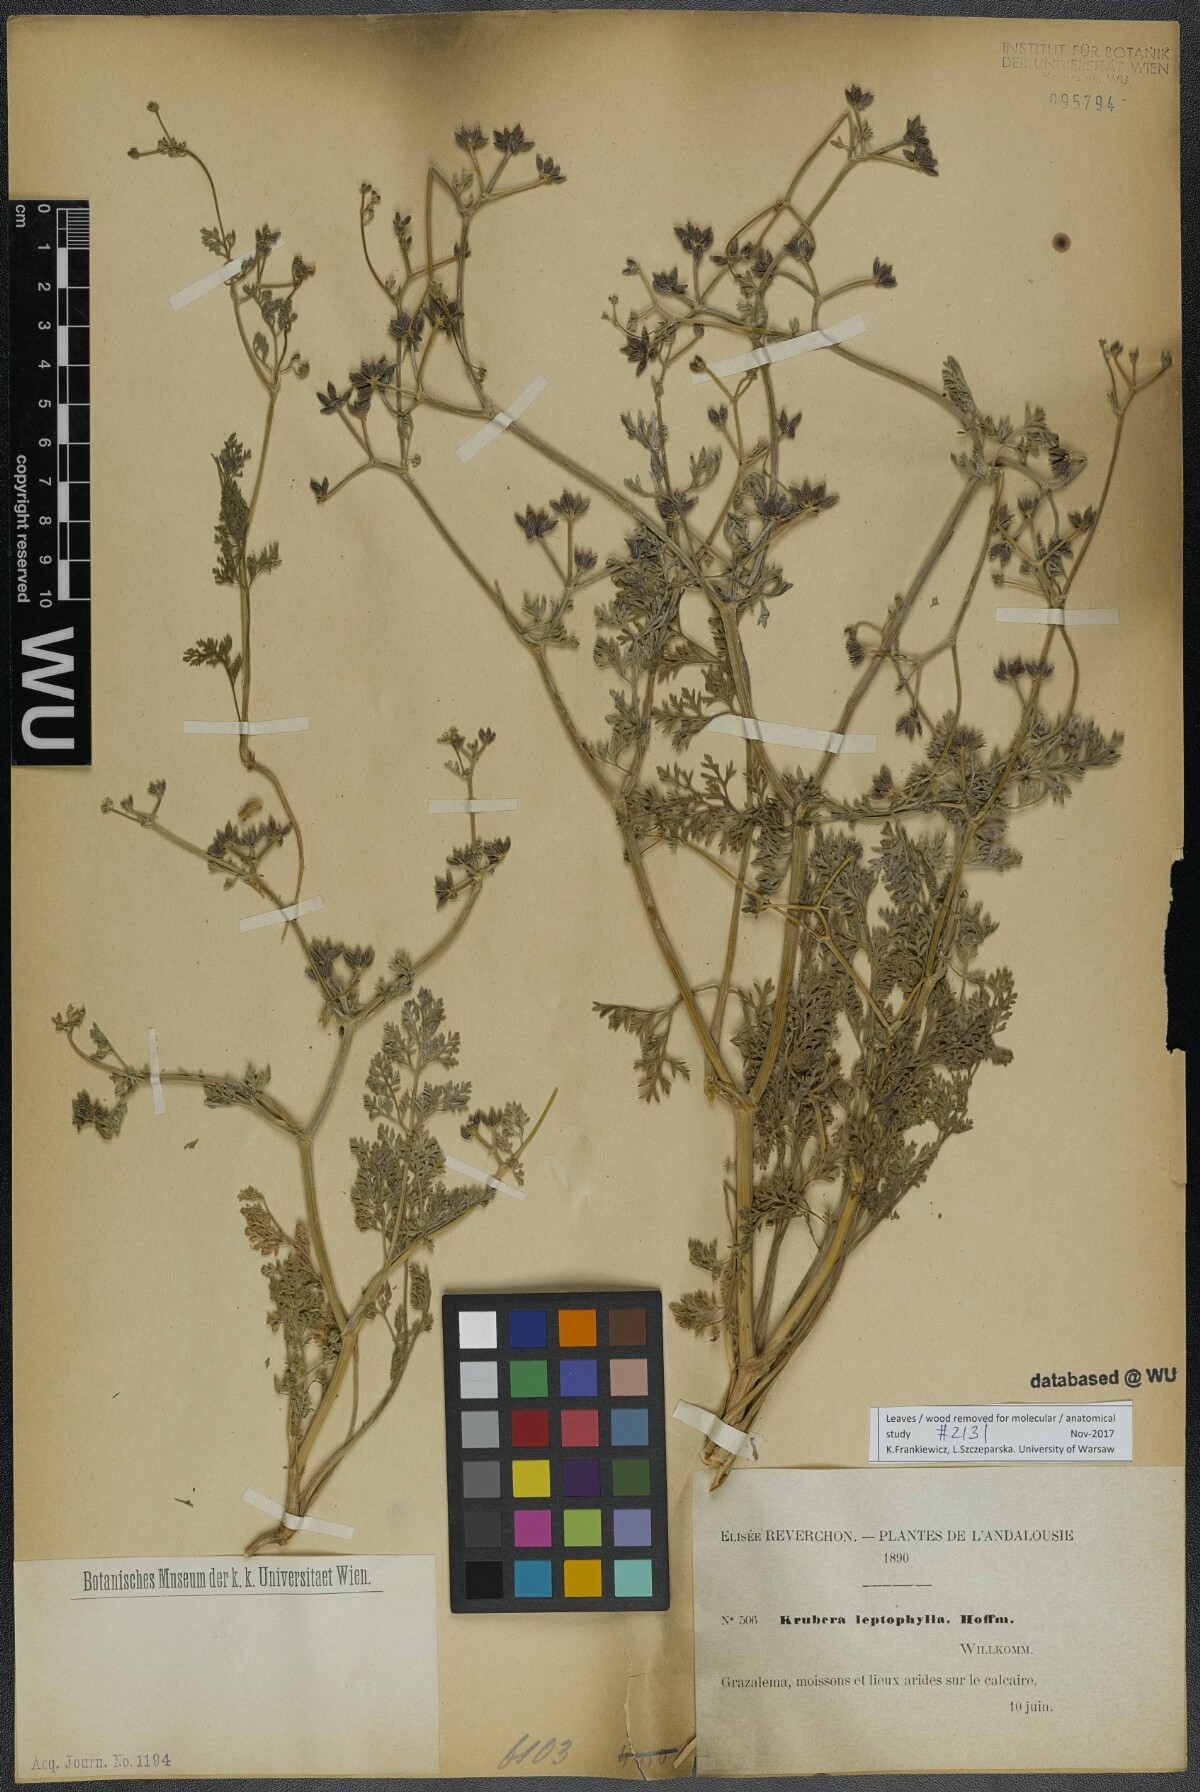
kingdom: Plantae
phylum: Tracheophyta
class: Magnoliopsida
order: Apiales
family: Apiaceae
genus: Krubera
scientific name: Krubera peregrina
